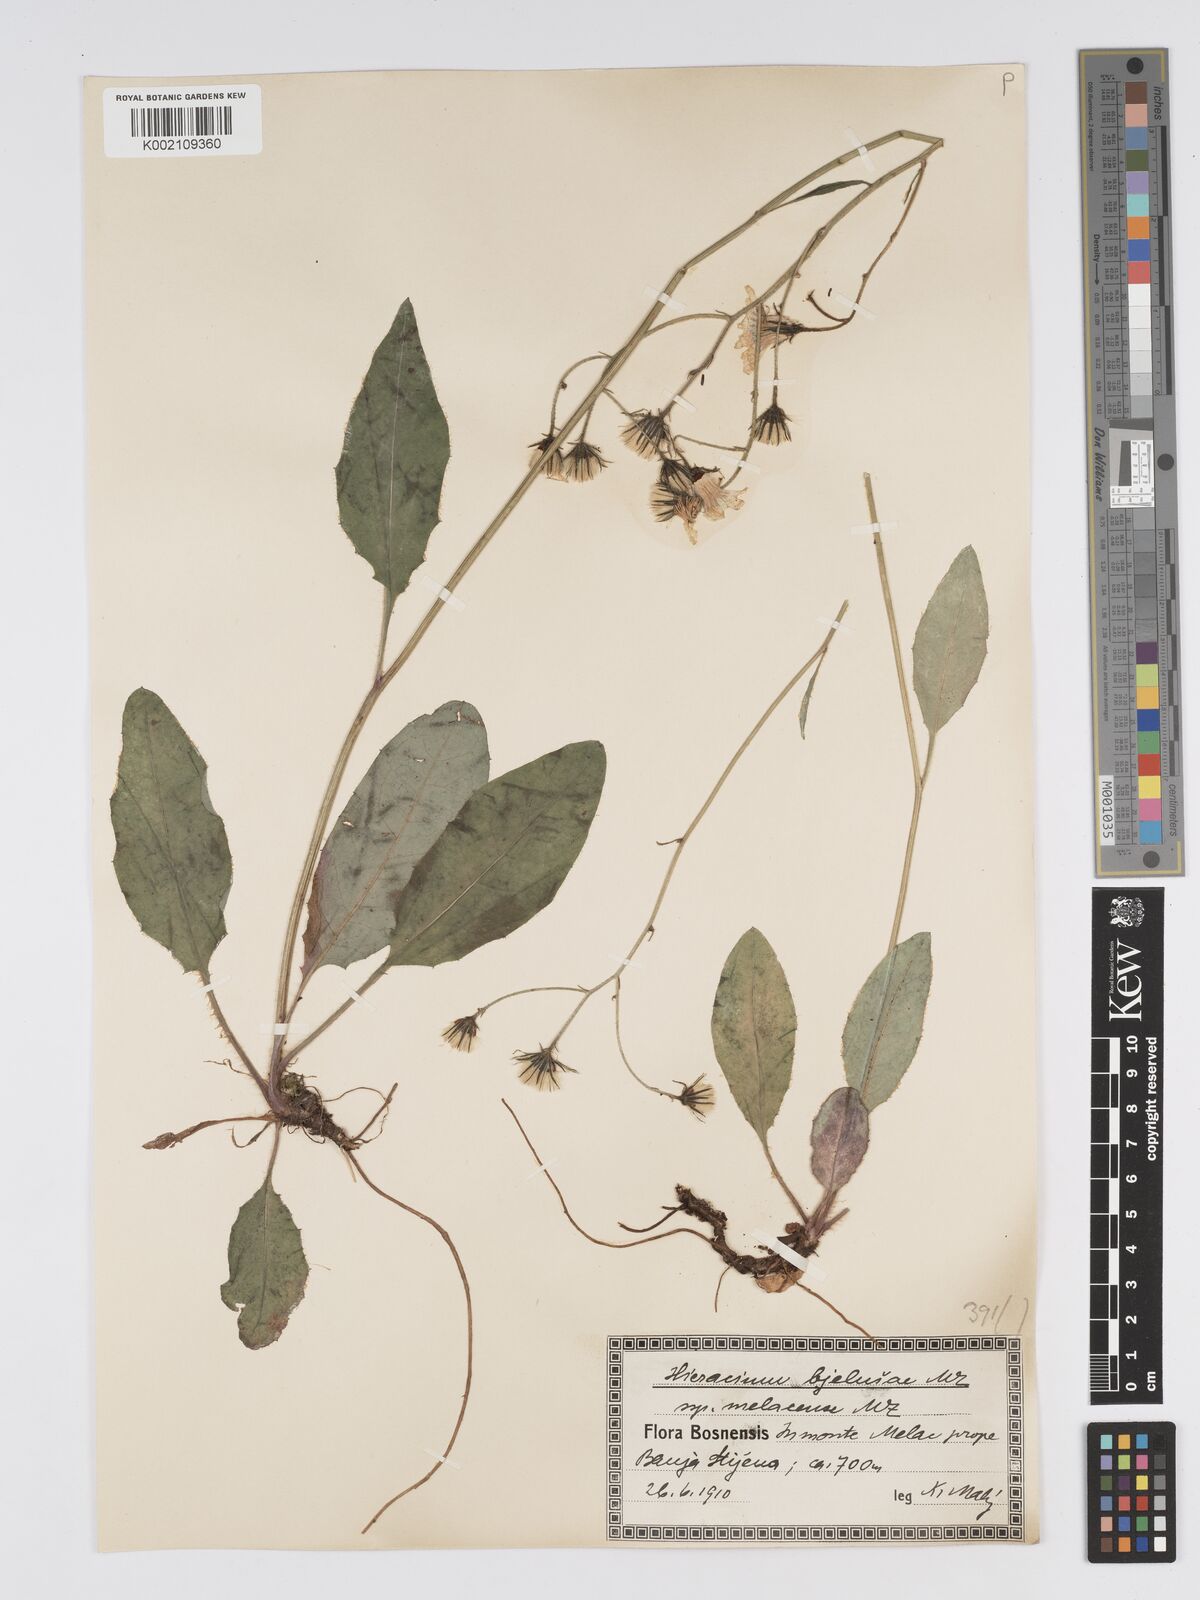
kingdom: Plantae
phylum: Tracheophyta
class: Magnoliopsida
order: Asterales
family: Asteraceae
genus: Hieracium
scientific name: Hieracium bjeluschae
